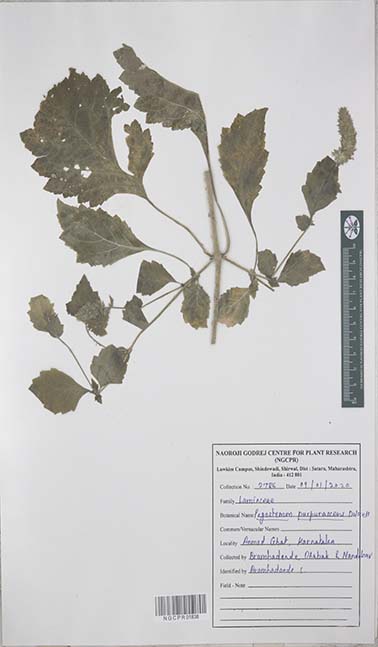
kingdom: Plantae
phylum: Tracheophyta
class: Magnoliopsida
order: Lamiales
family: Lamiaceae
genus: Pogostemon
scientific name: Pogostemon purpurascens
